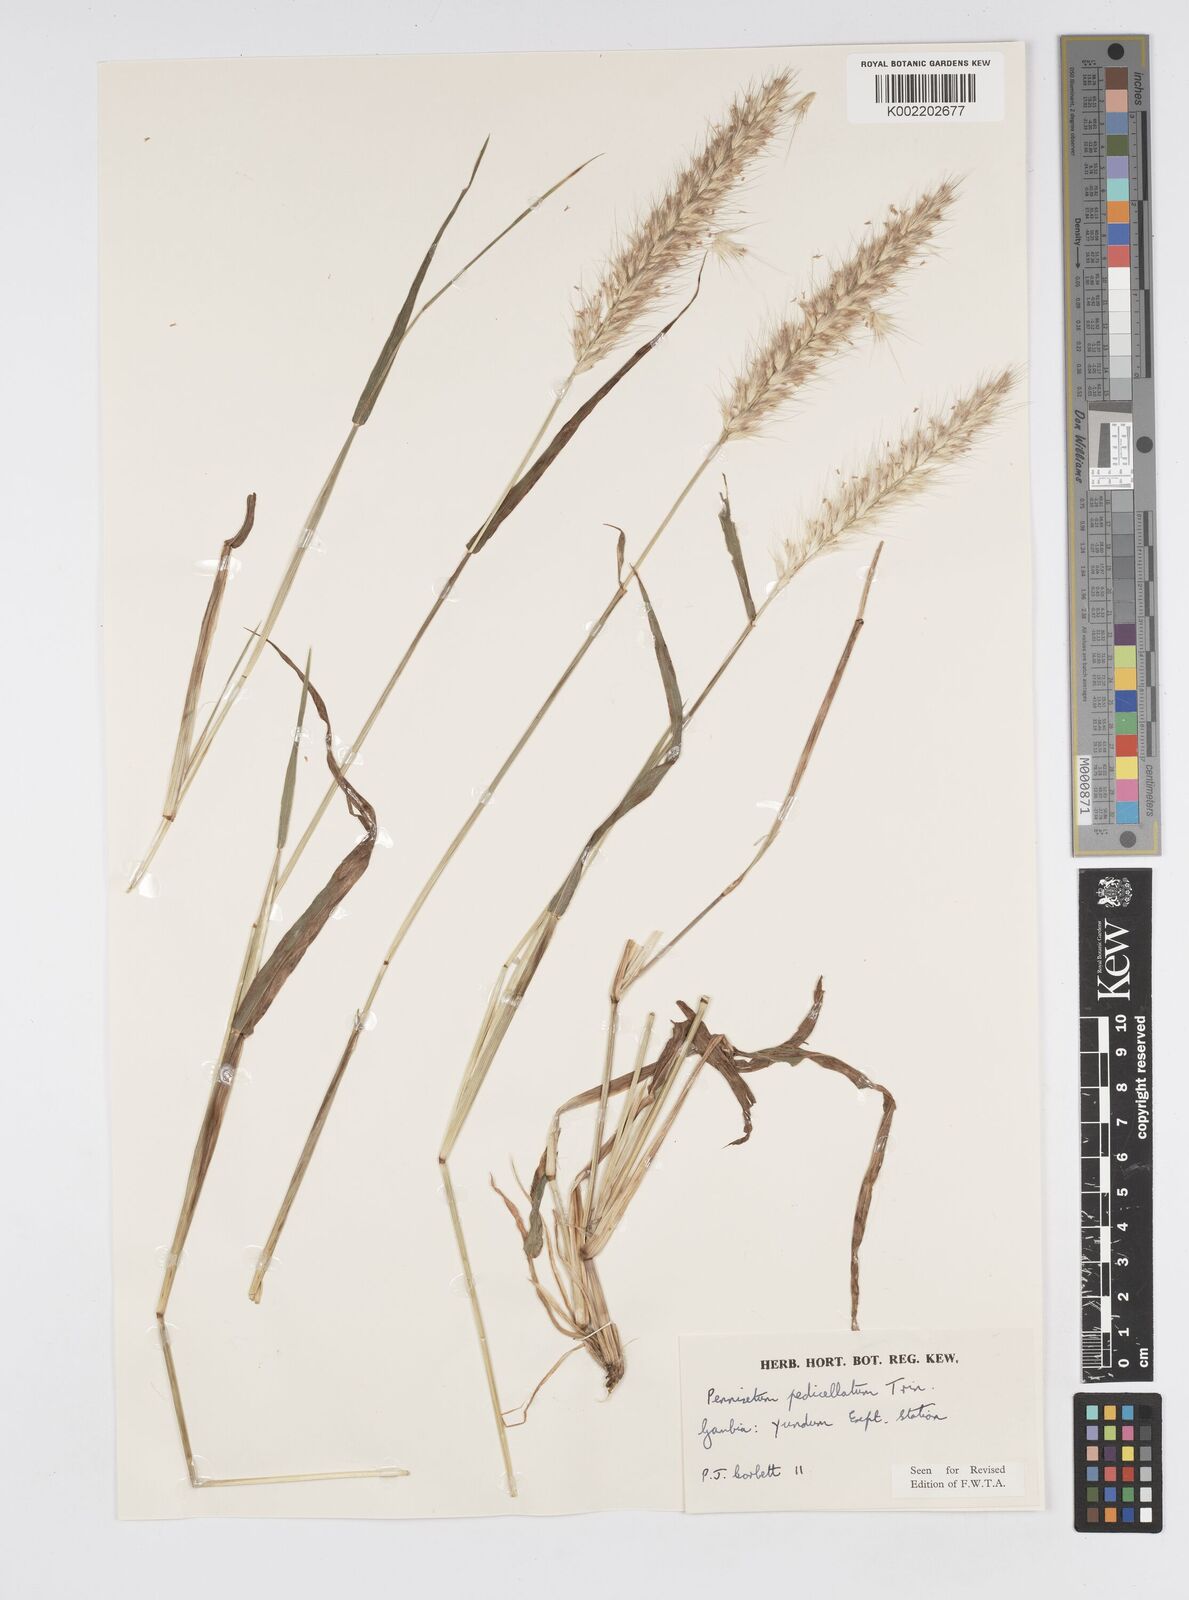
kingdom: Plantae
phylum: Tracheophyta
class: Liliopsida
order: Poales
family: Poaceae
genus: Cenchrus
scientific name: Cenchrus pedicellatus
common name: Hairy fountain grass
